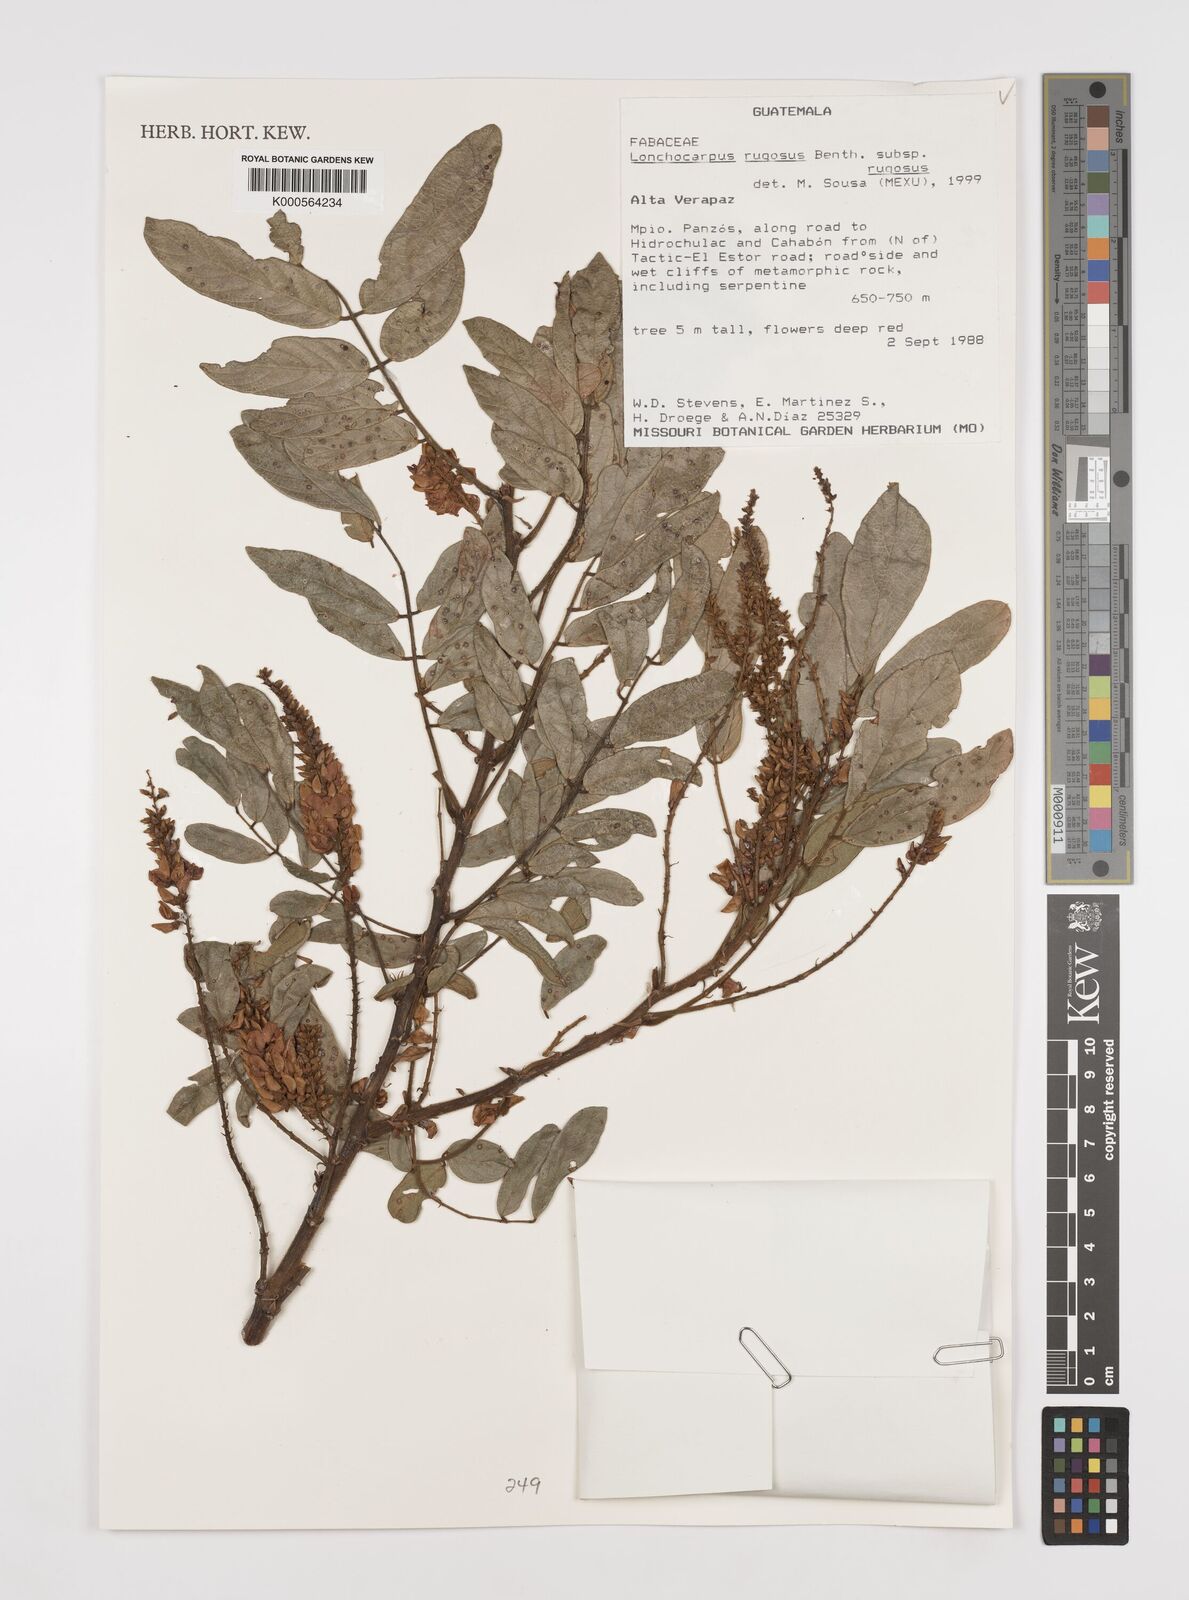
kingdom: Plantae
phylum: Tracheophyta
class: Magnoliopsida
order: Fabales
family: Fabaceae
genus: Lonchocarpus
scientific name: Lonchocarpus rugosus
